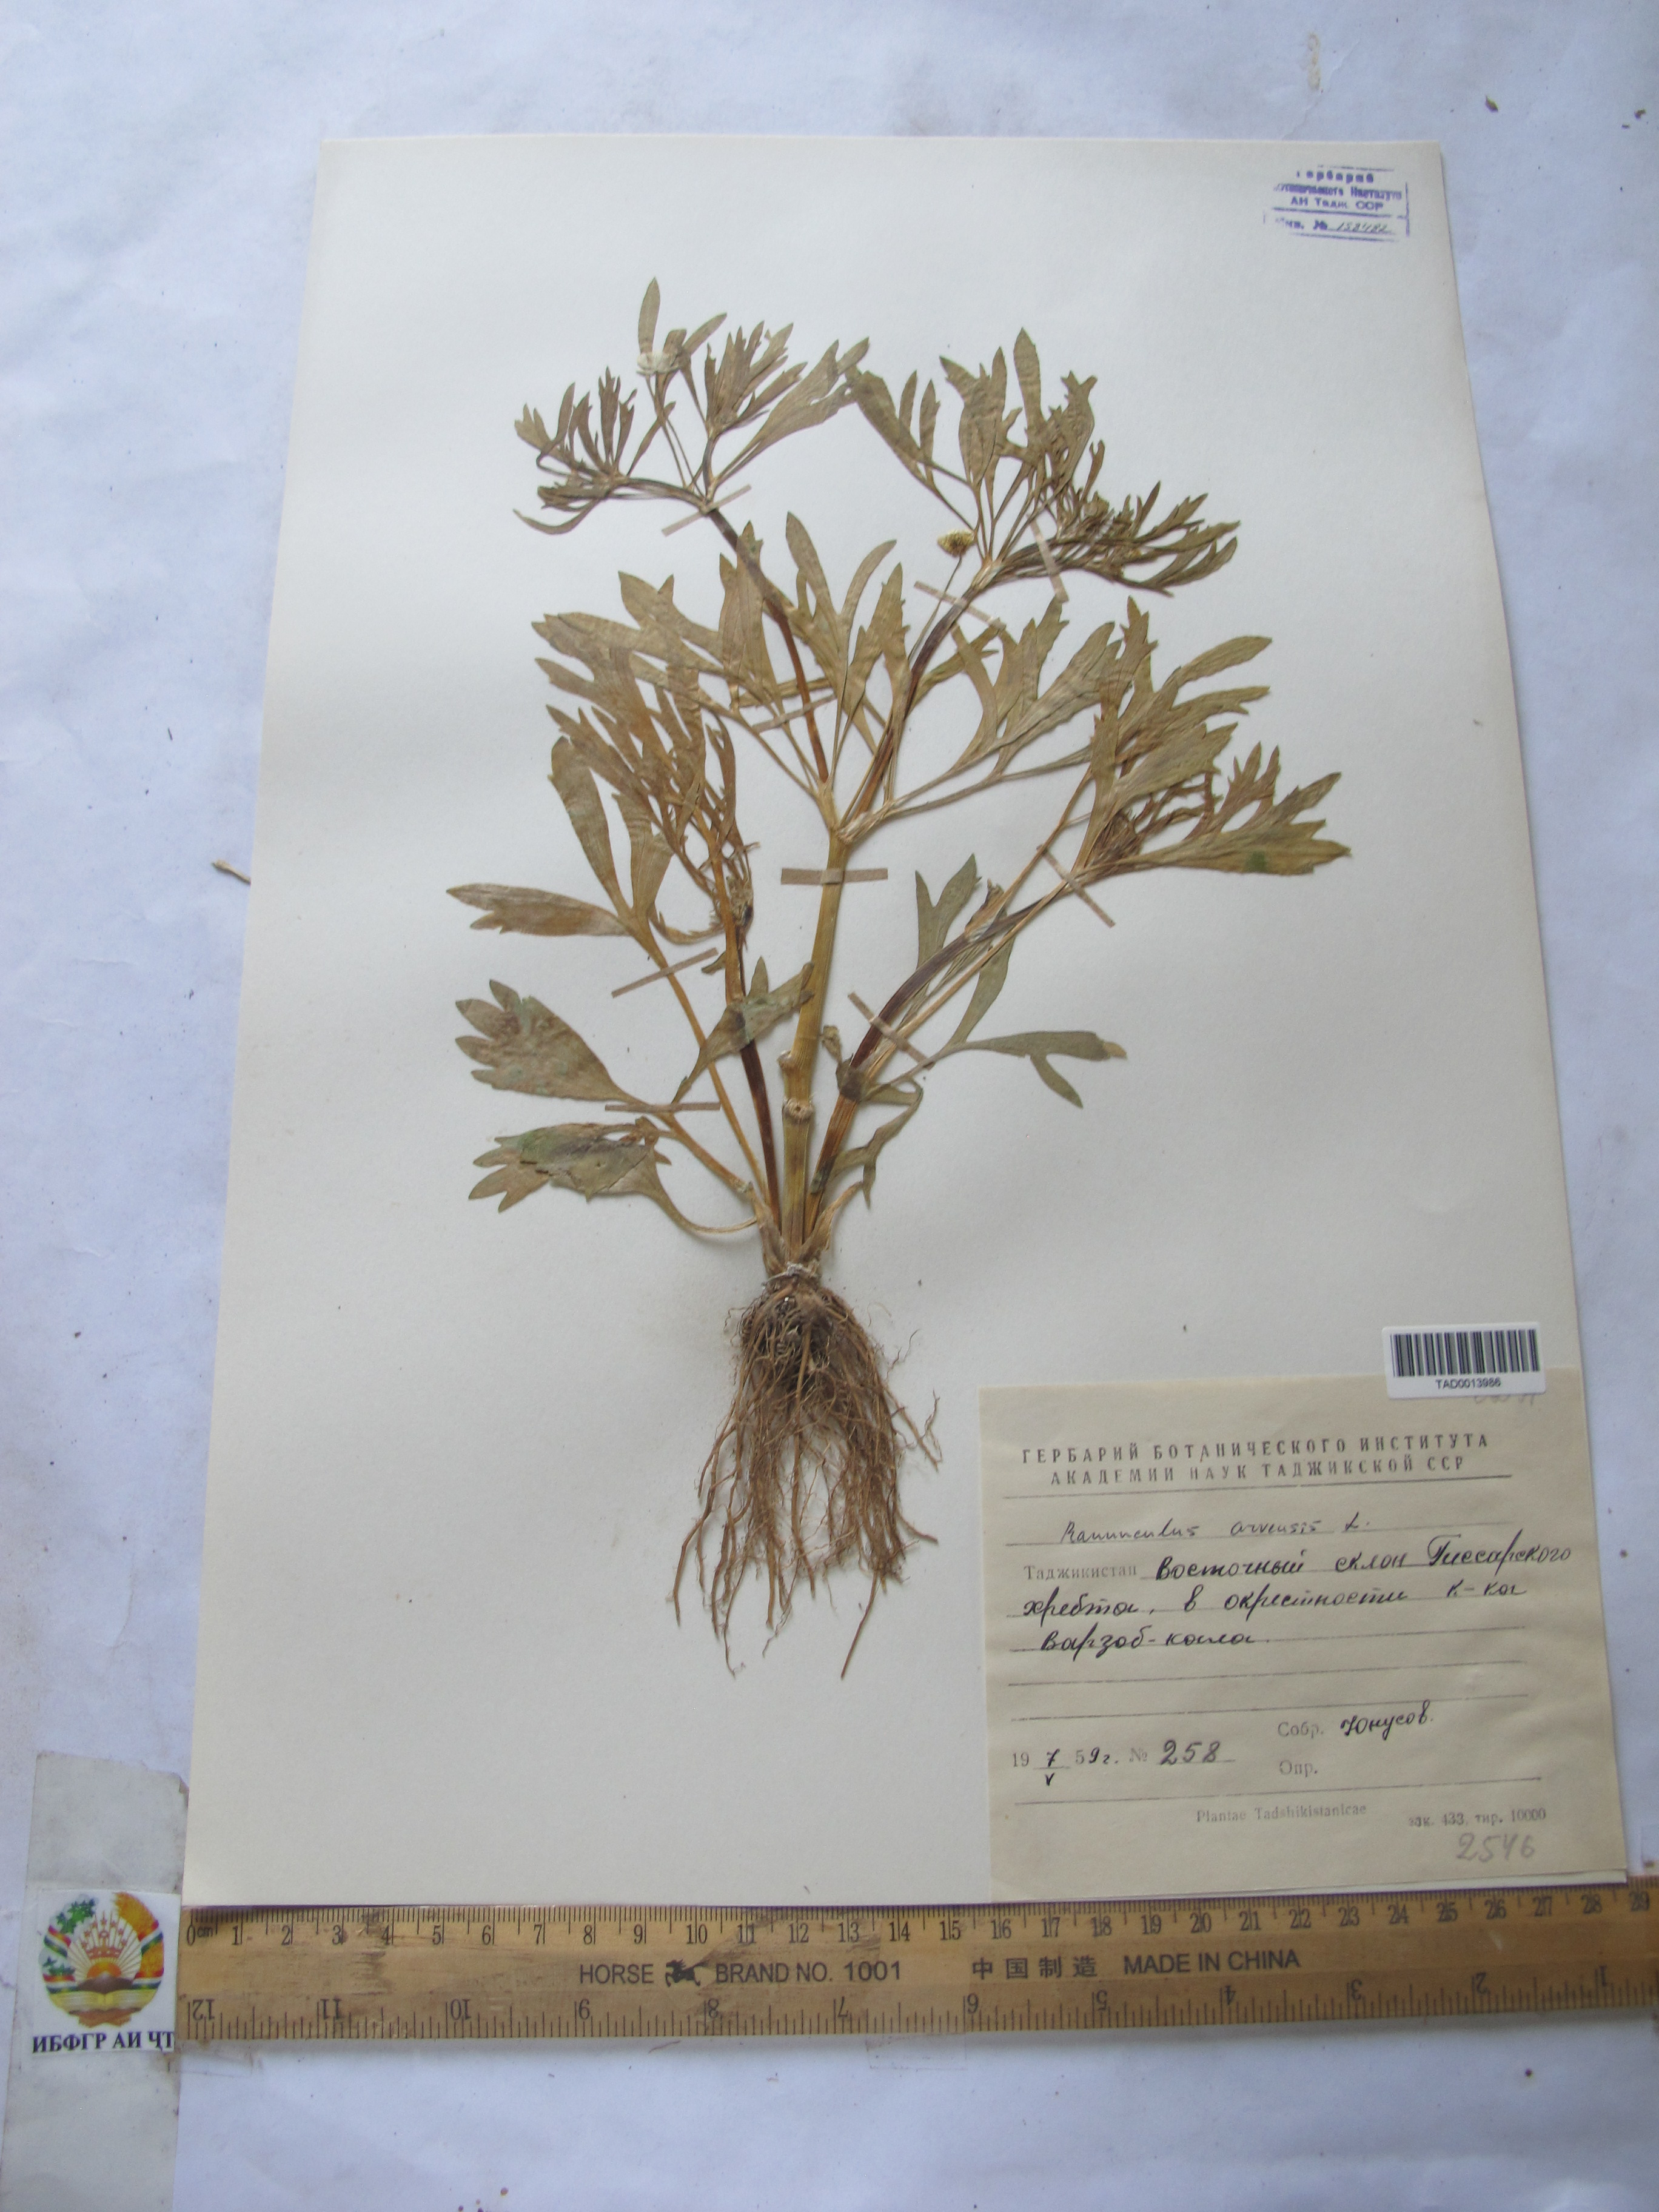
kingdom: Plantae
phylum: Tracheophyta
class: Magnoliopsida
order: Ranunculales
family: Ranunculaceae
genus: Ranunculus
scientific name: Ranunculus arvensis
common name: Corn buttercup
